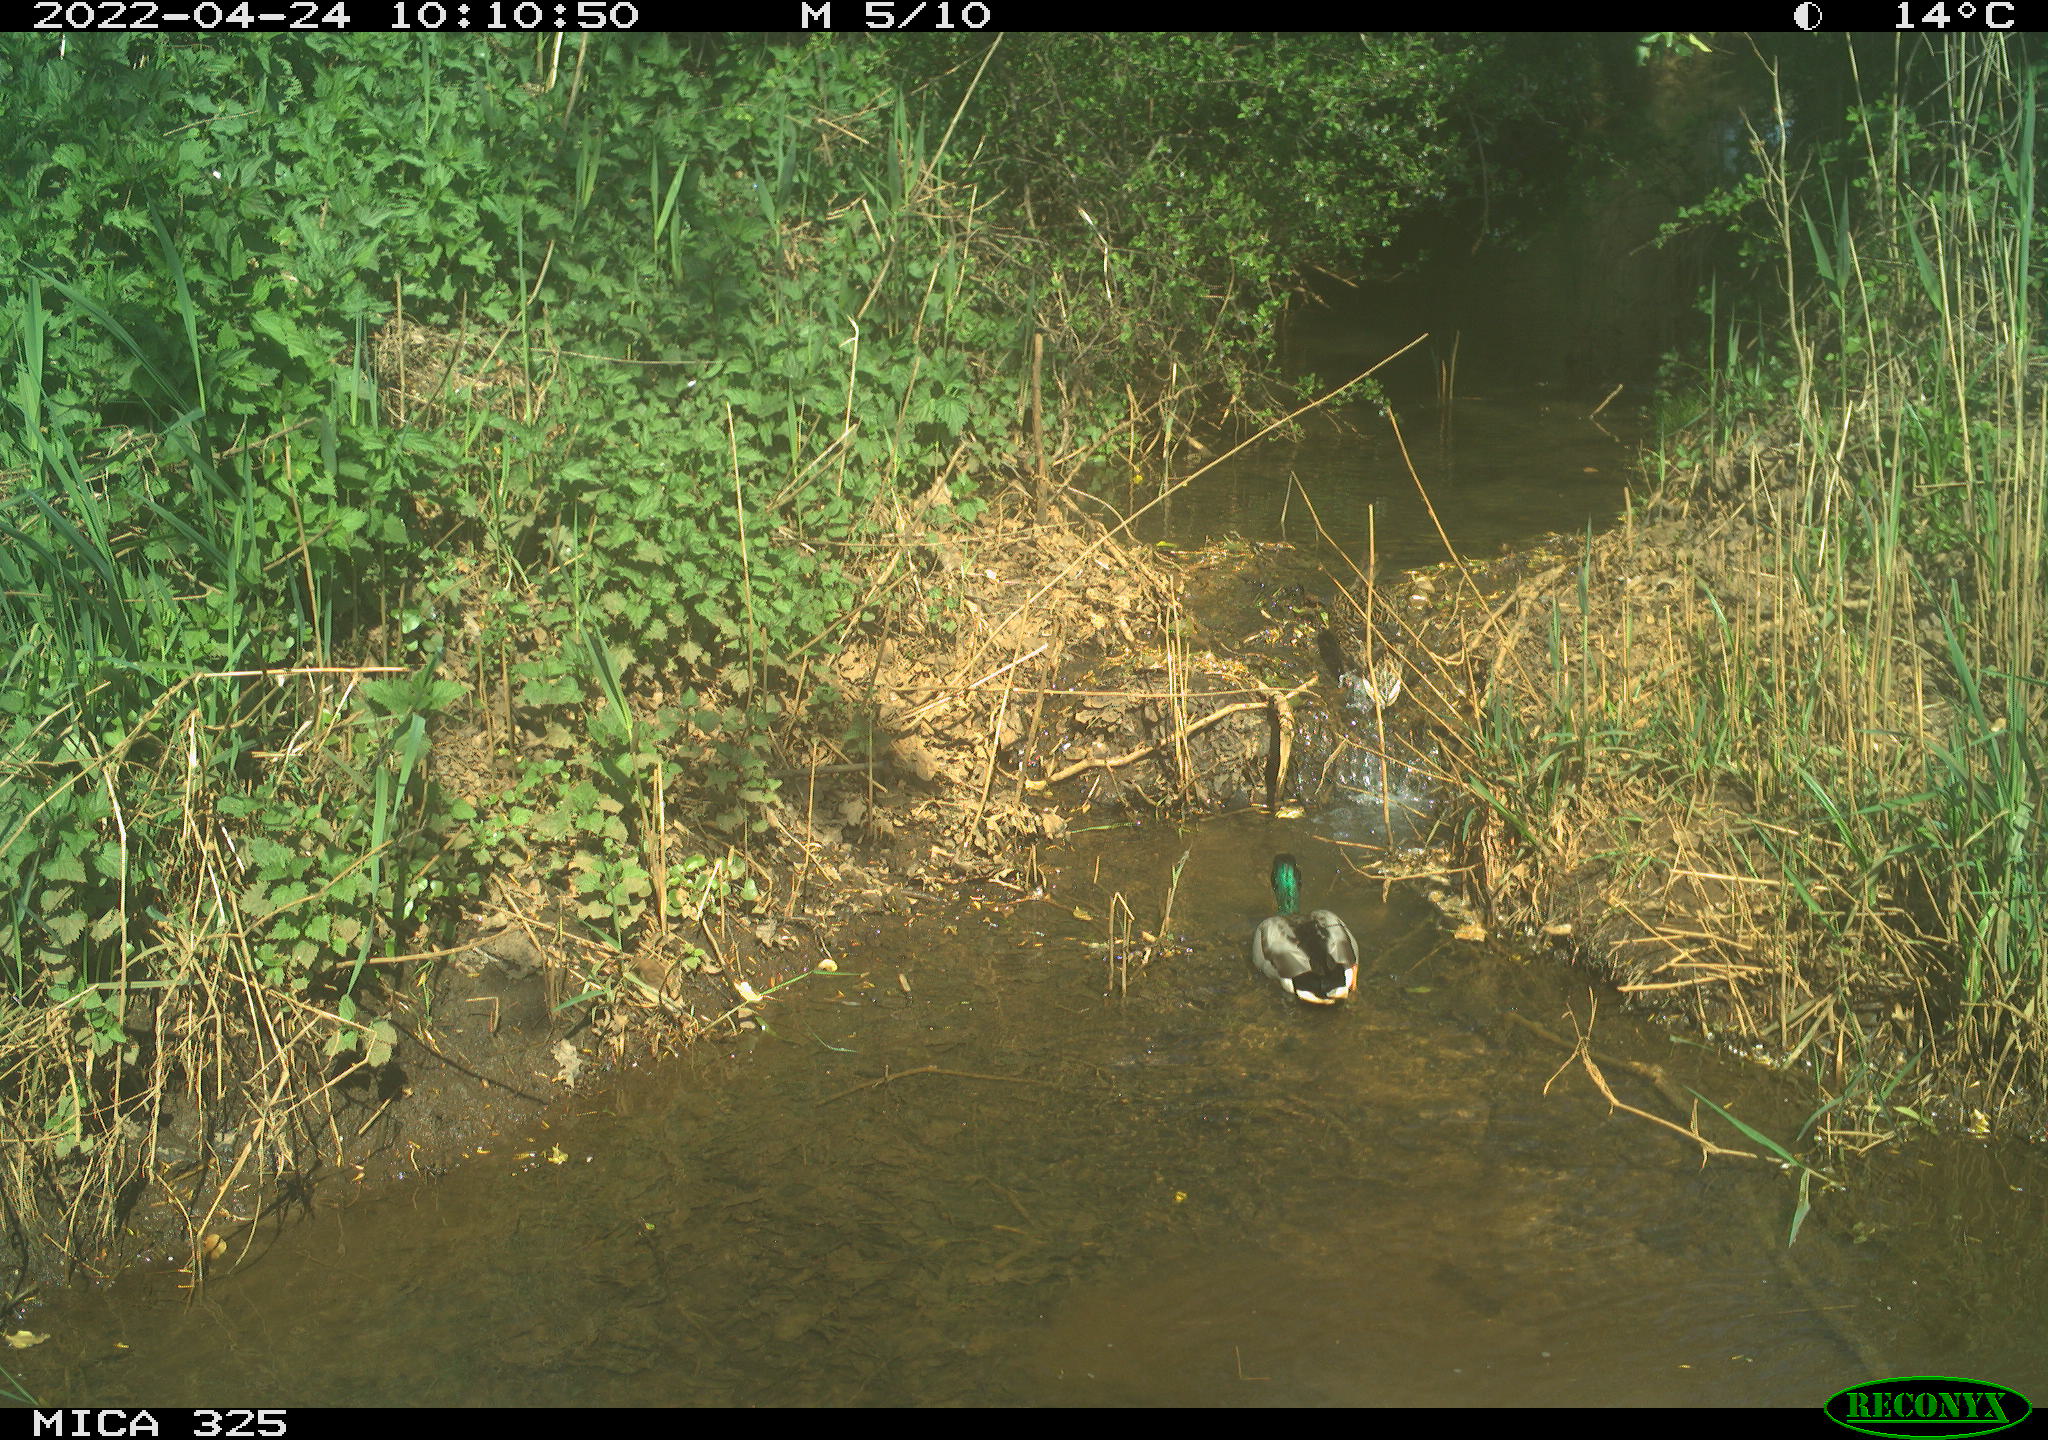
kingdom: Animalia
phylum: Chordata
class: Aves
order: Anseriformes
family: Anatidae
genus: Anas
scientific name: Anas platyrhynchos
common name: Mallard
